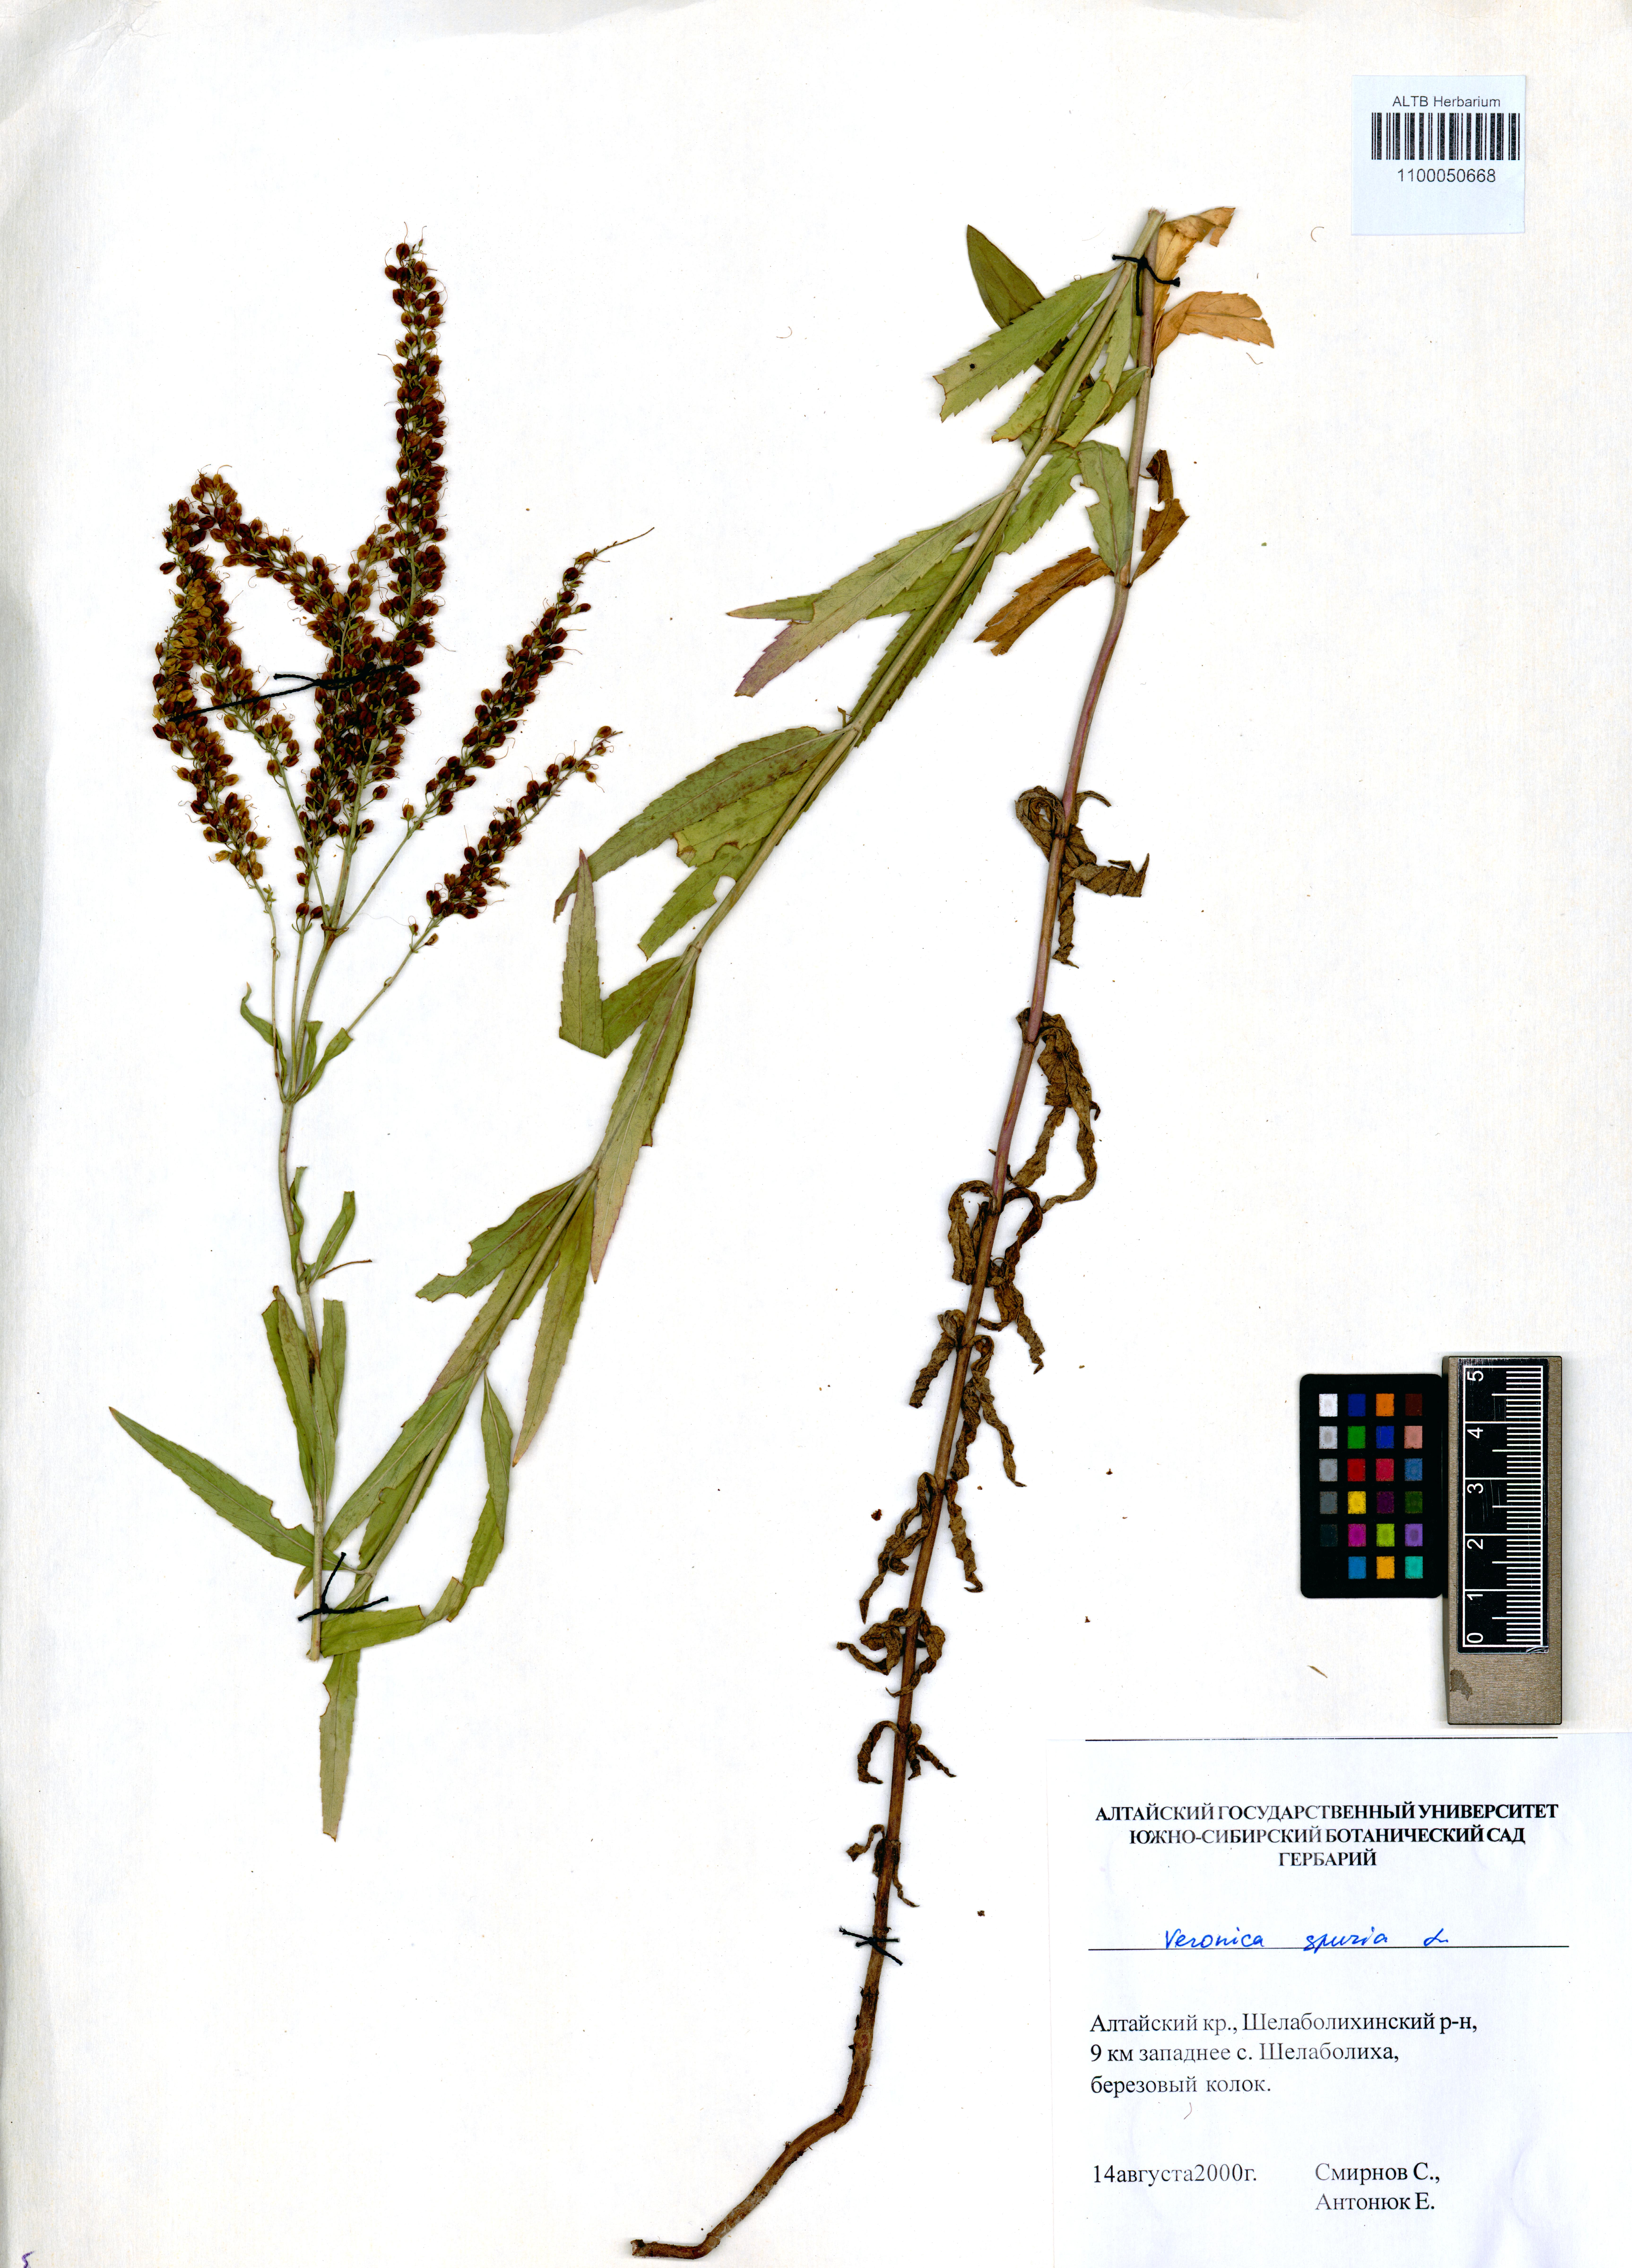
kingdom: Plantae
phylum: Tracheophyta
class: Magnoliopsida
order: Lamiales
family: Plantaginaceae
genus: Veronica
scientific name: Veronica spuria
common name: Bastard speedwell
